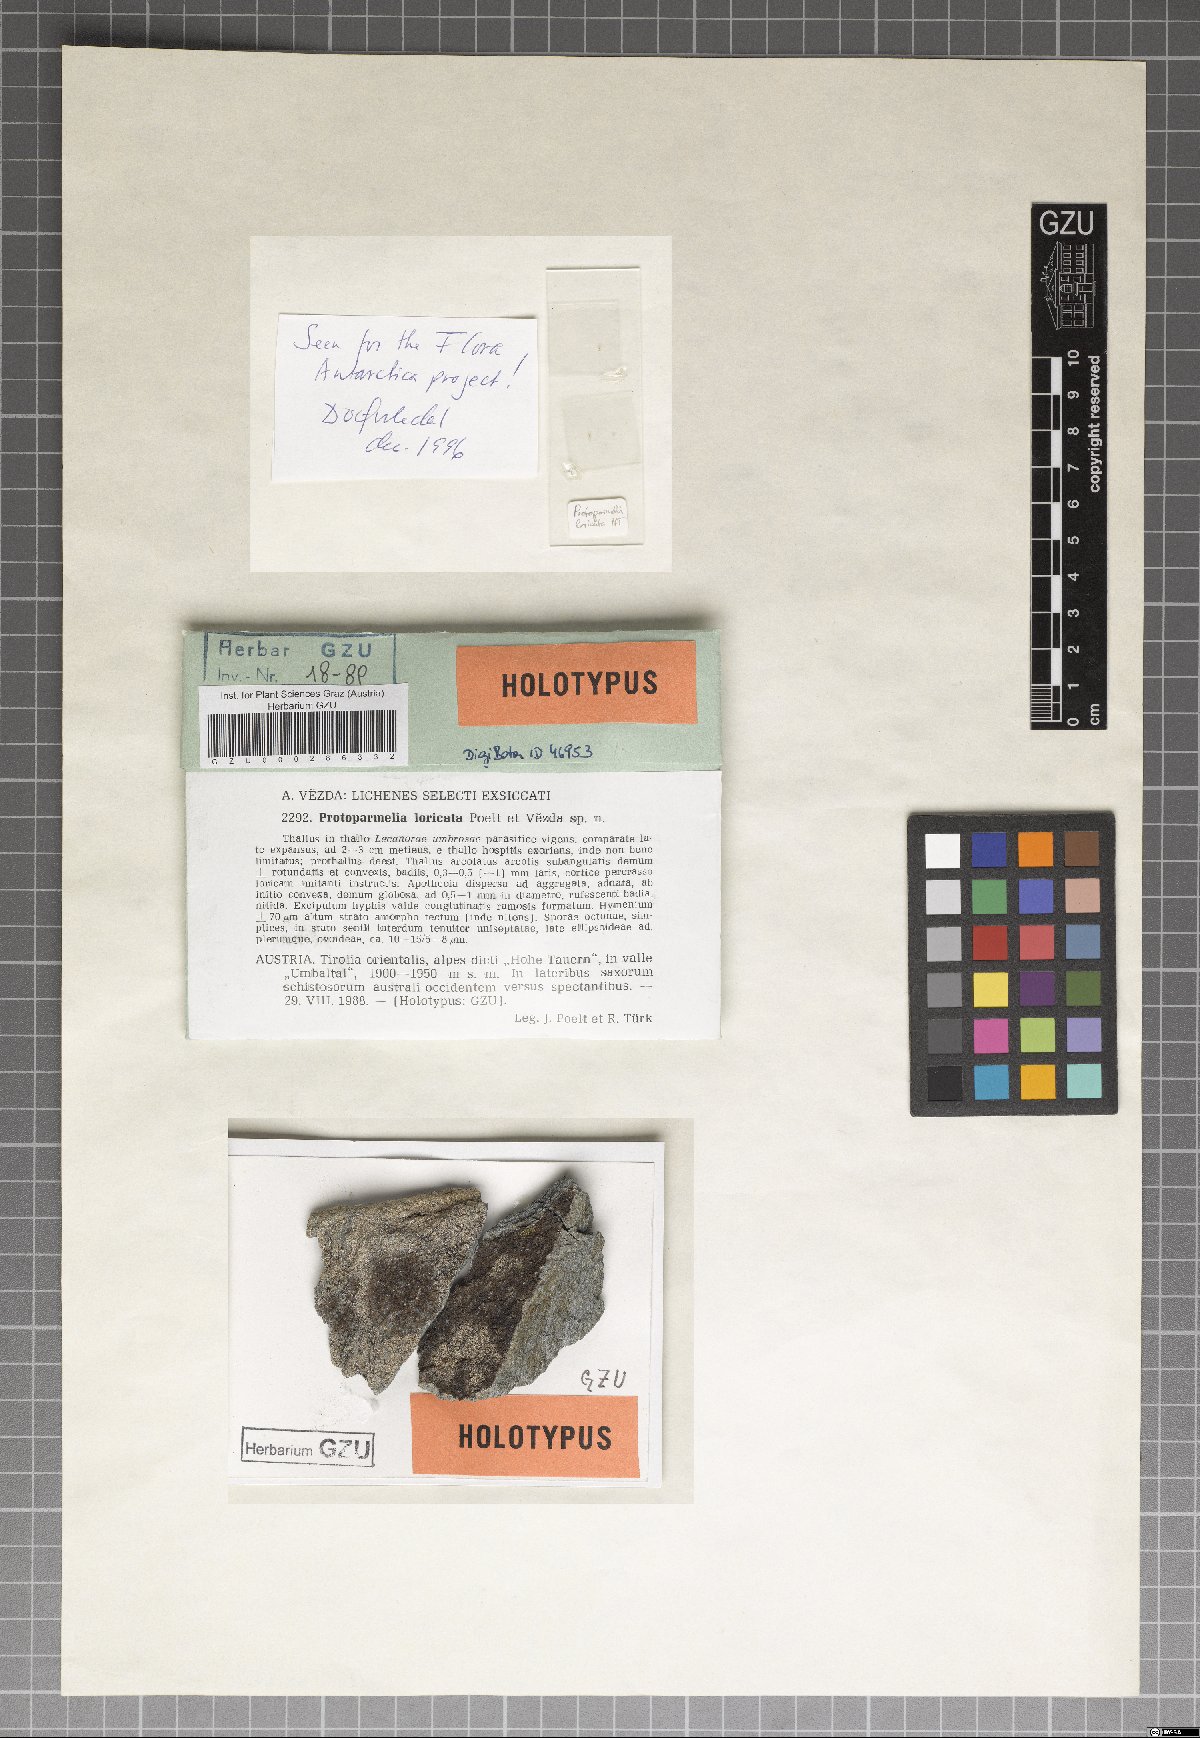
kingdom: Fungi
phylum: Ascomycota
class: Lecanoromycetes
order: Lecanorales
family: Parmeliaceae
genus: Protoparmelia
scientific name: Protoparmelia loricata
